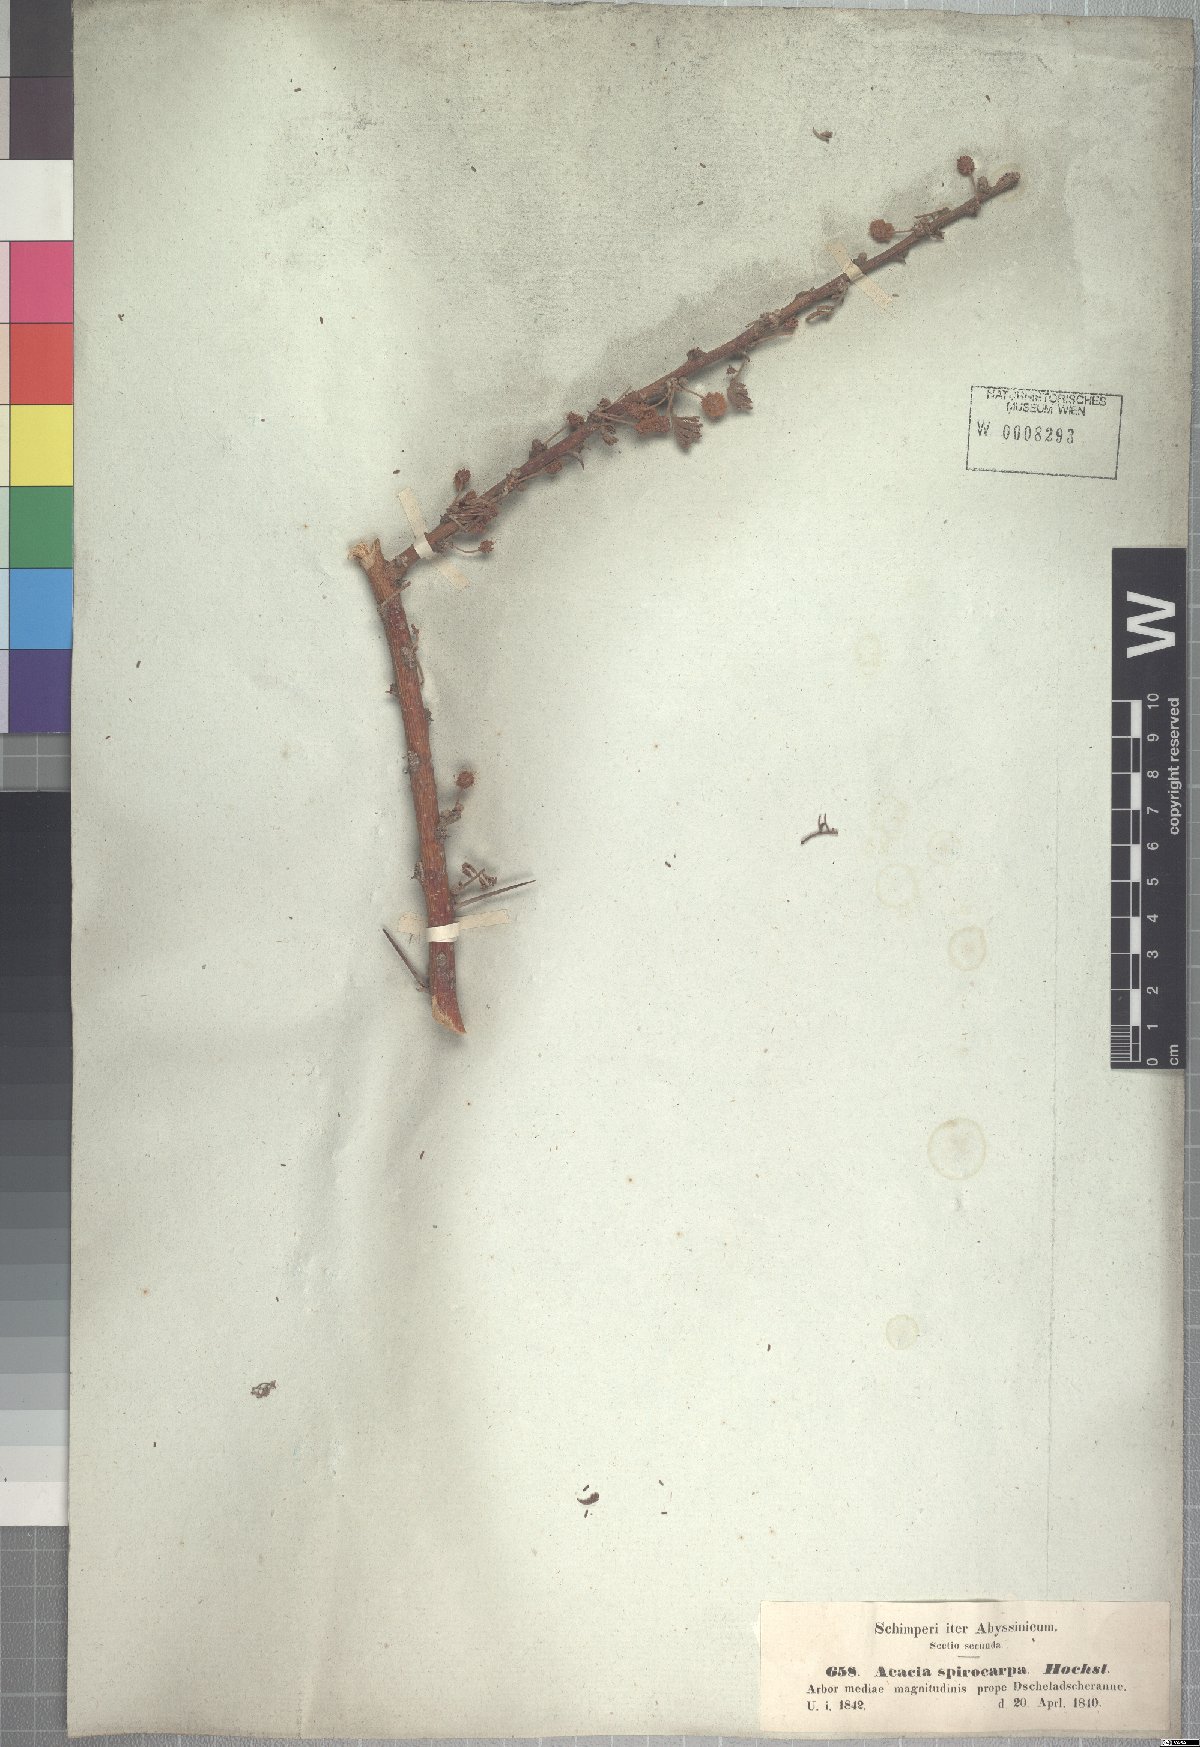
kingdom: Plantae
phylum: Tracheophyta
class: Magnoliopsida
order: Fabales
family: Fabaceae
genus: Vachellia
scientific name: Vachellia tortilis
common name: Umbrella thorn acacia
